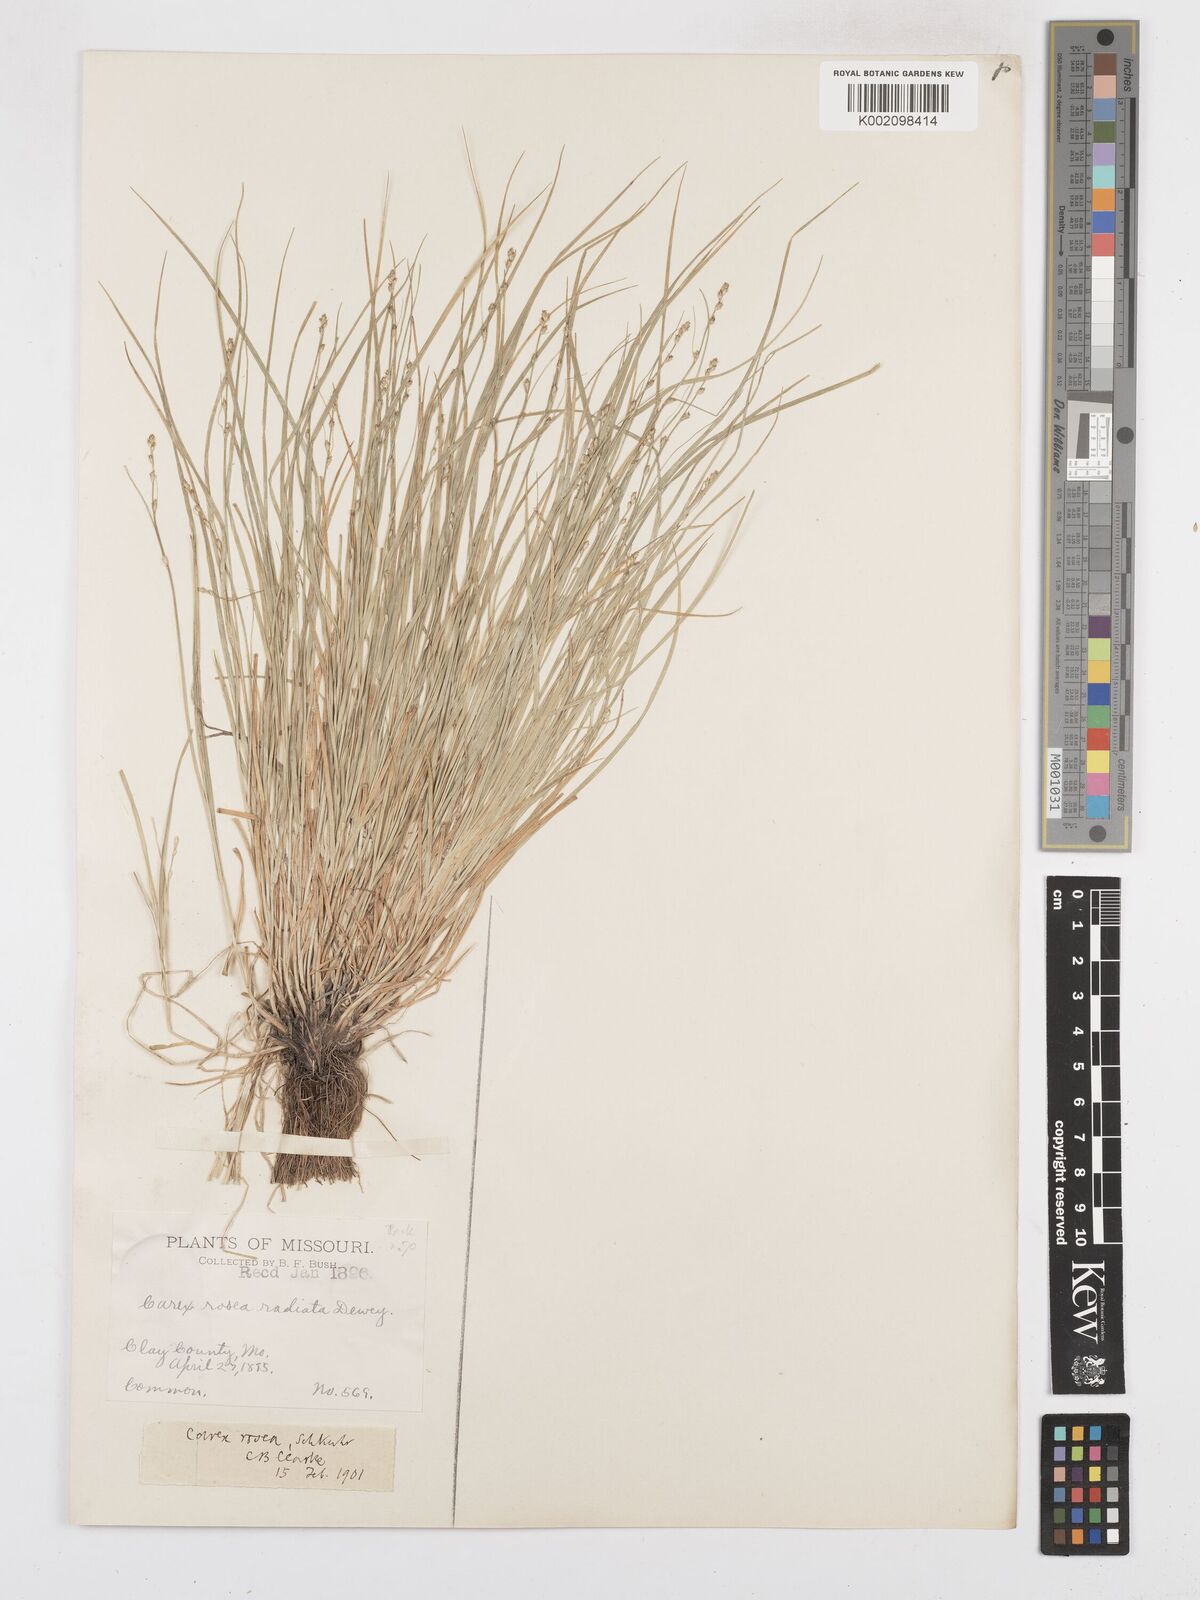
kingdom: Plantae
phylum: Tracheophyta
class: Liliopsida
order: Poales
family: Cyperaceae
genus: Carex
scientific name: Carex
